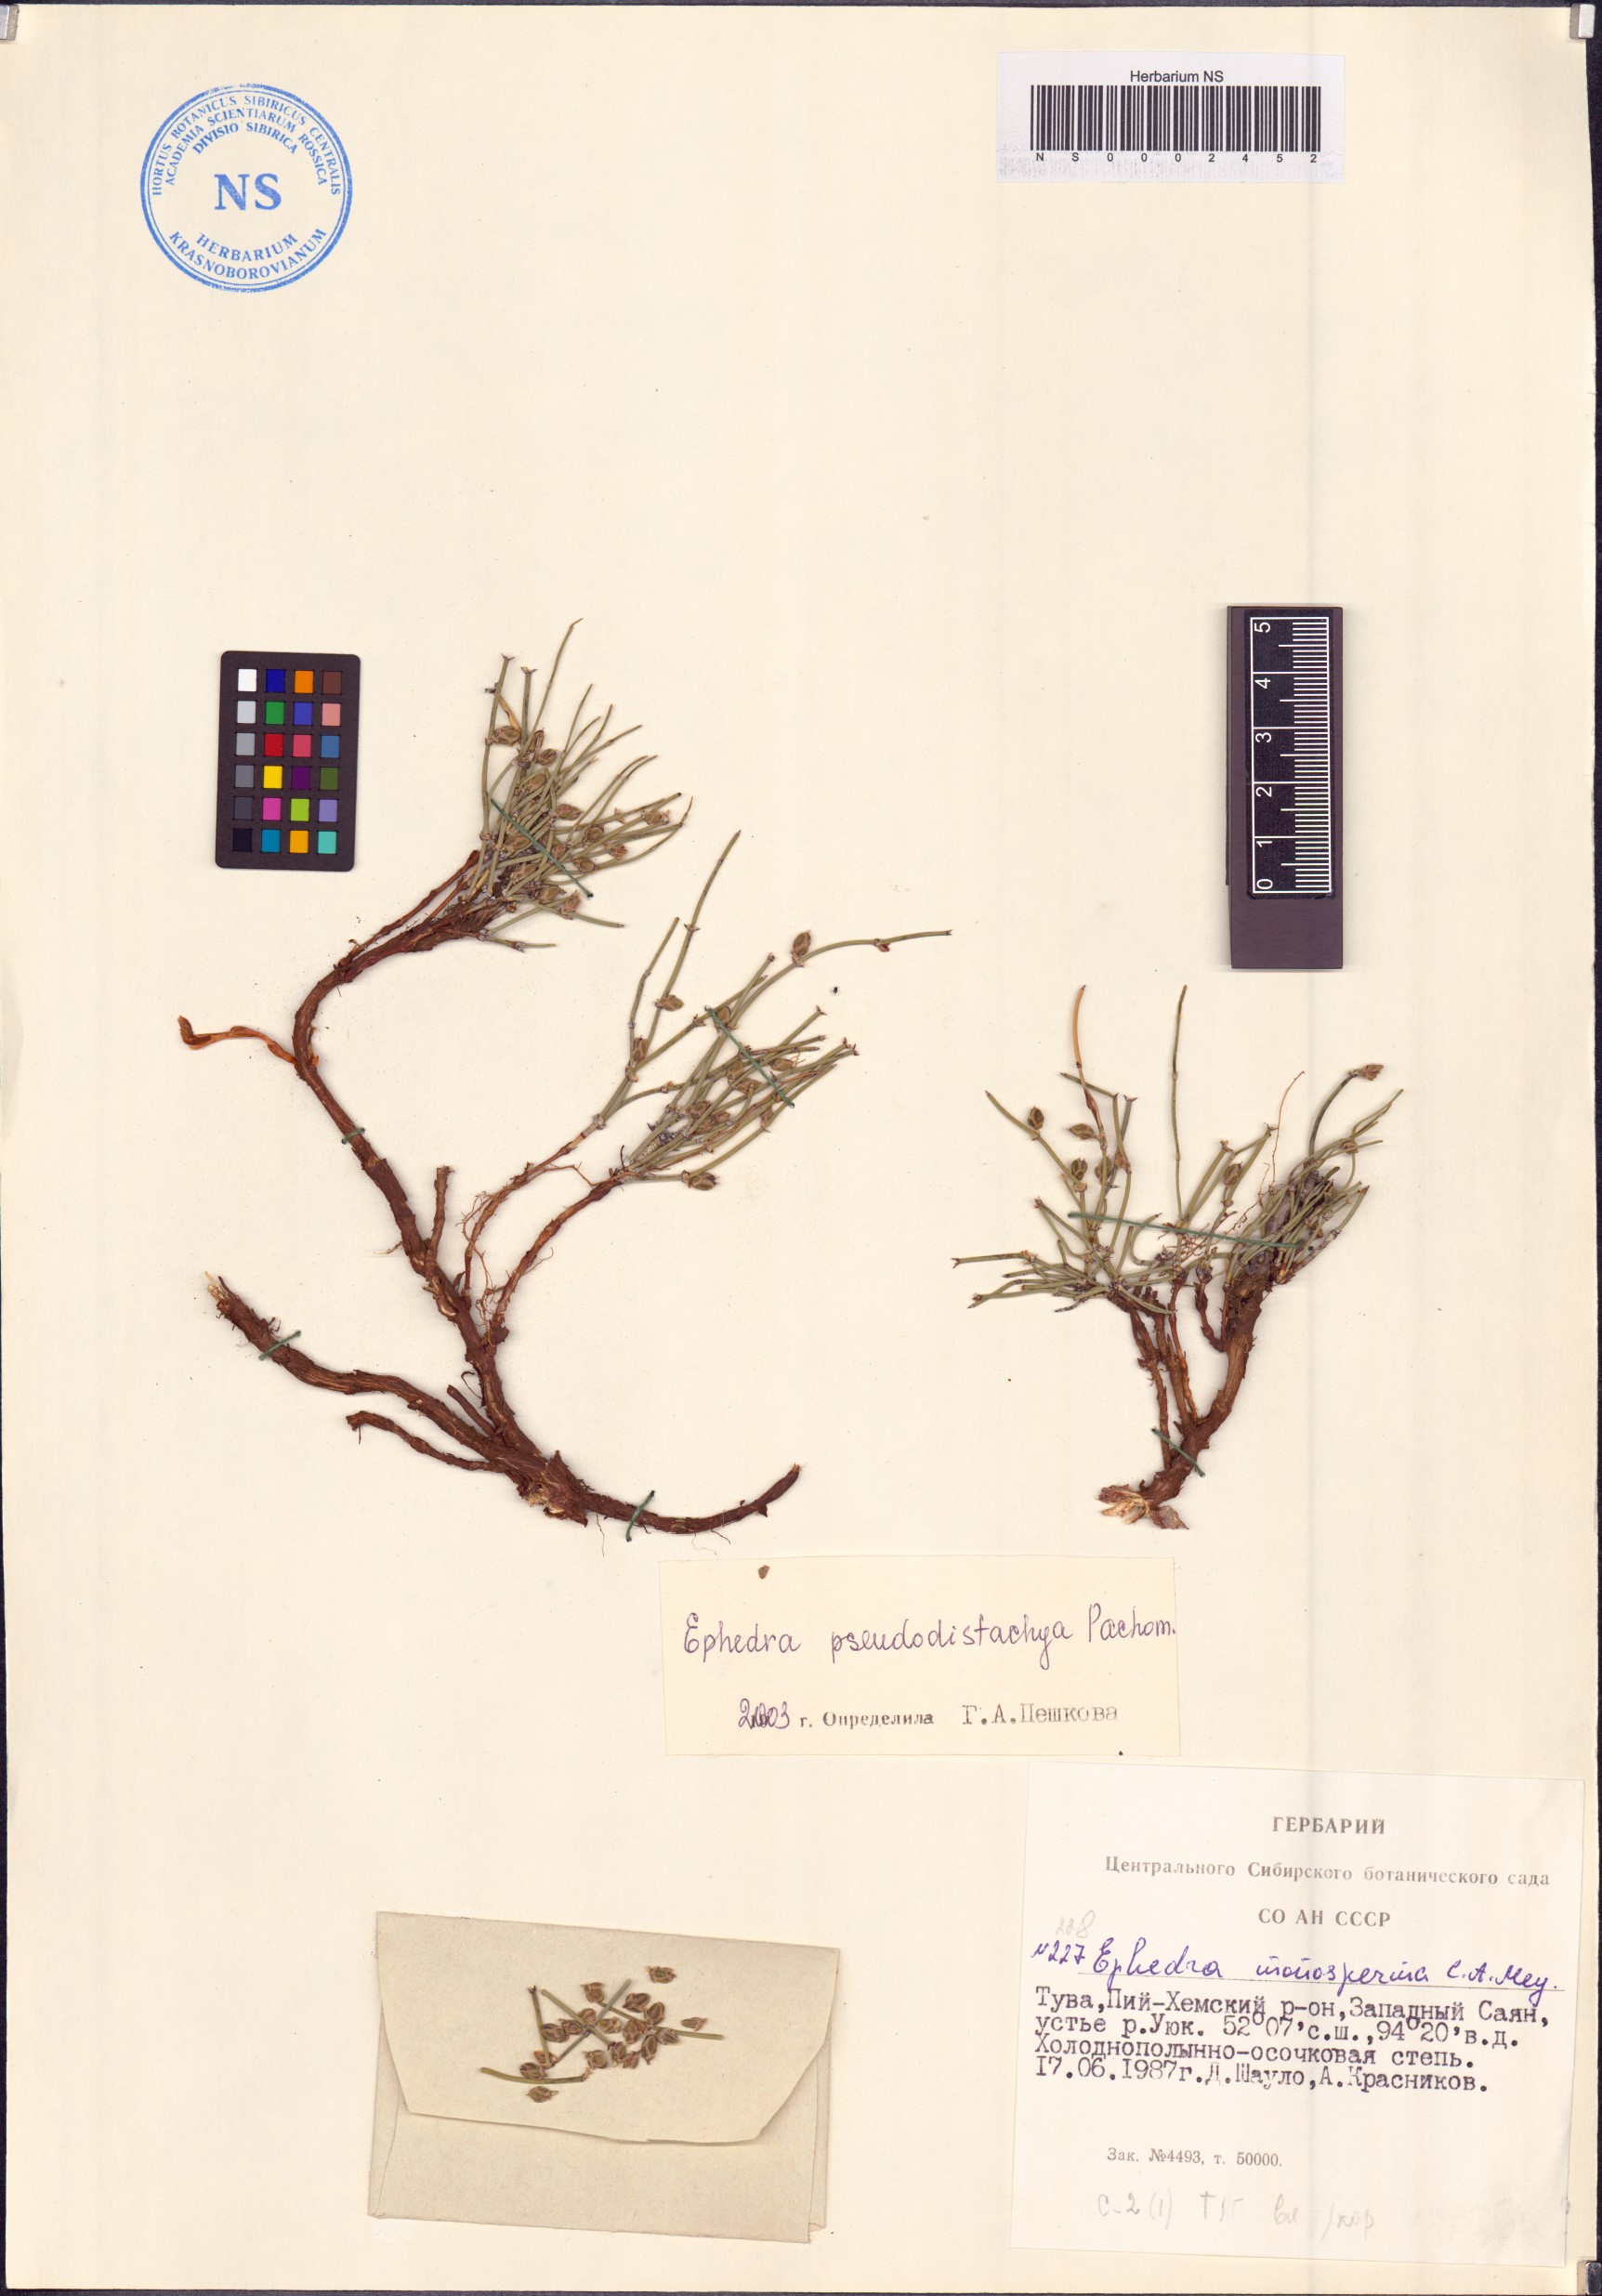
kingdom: Plantae
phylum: Tracheophyta
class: Gnetopsida
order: Ephedrales
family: Ephedraceae
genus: Ephedra
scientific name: Ephedra pseudodistachya
